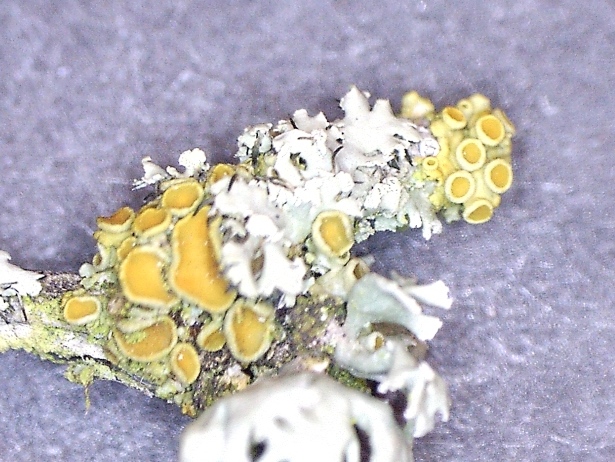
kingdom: Fungi
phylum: Ascomycota
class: Lecanoromycetes
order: Teloschistales
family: Teloschistaceae
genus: Polycauliona
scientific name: Polycauliona polycarpa
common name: mangefrugtet orangelav
